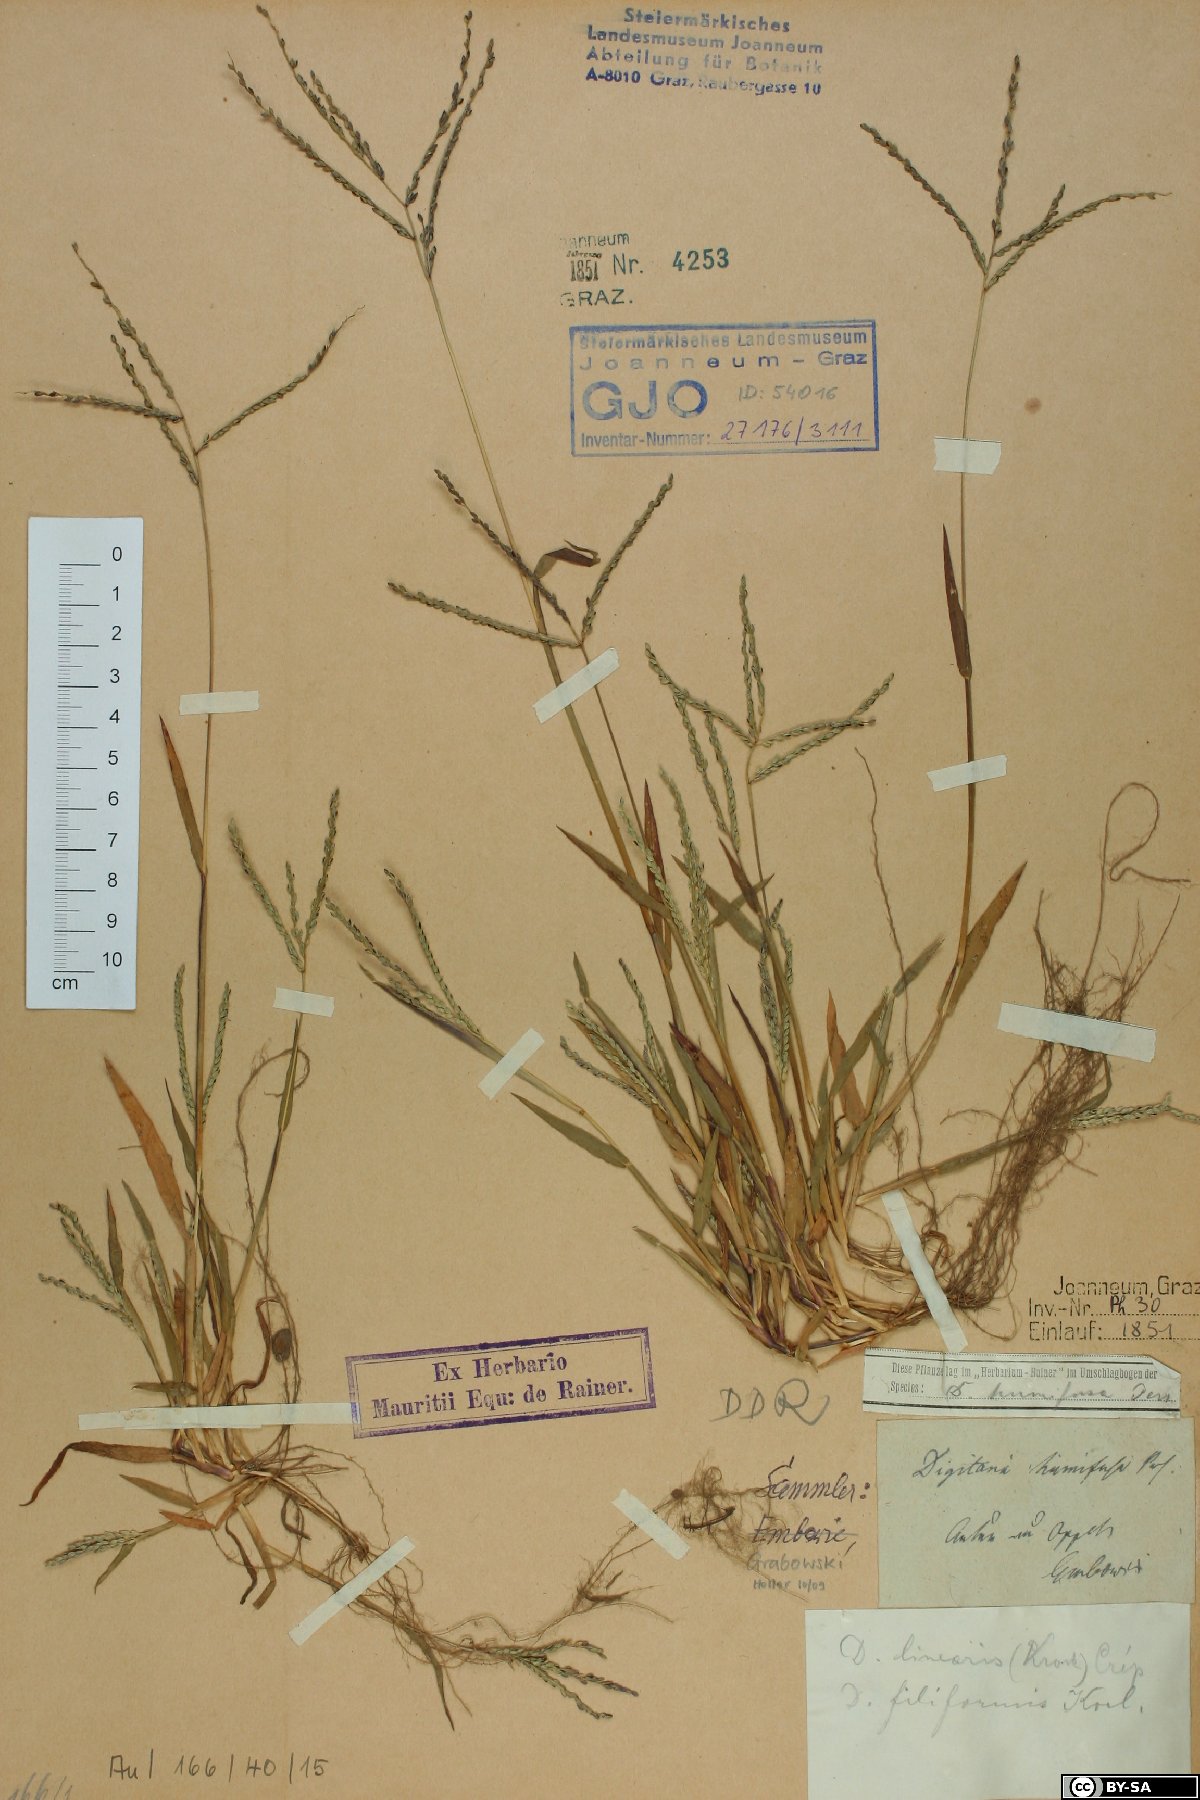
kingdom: Plantae
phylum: Tracheophyta
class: Liliopsida
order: Poales
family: Poaceae
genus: Digitaria
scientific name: Digitaria ischaemum
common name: Smooth crabgrass
